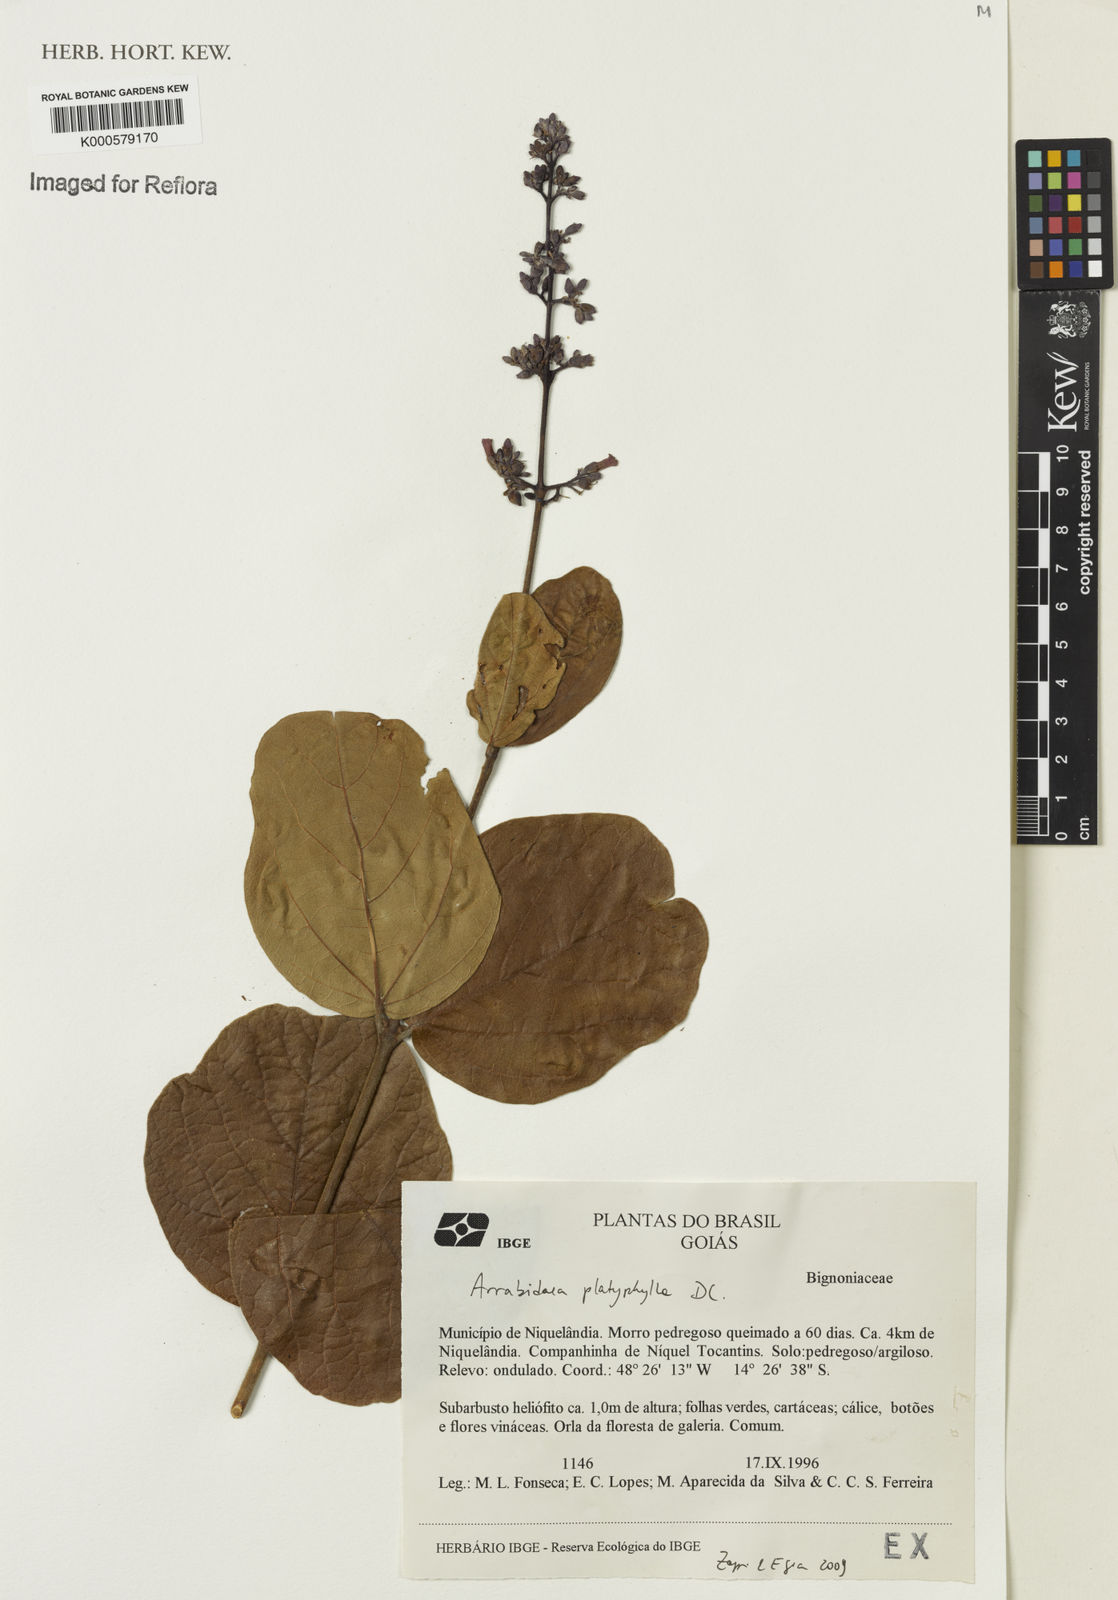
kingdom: Plantae
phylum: Tracheophyta
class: Magnoliopsida
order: Lamiales
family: Bignoniaceae
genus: Xylophragma
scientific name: Xylophragma platyphyllum
